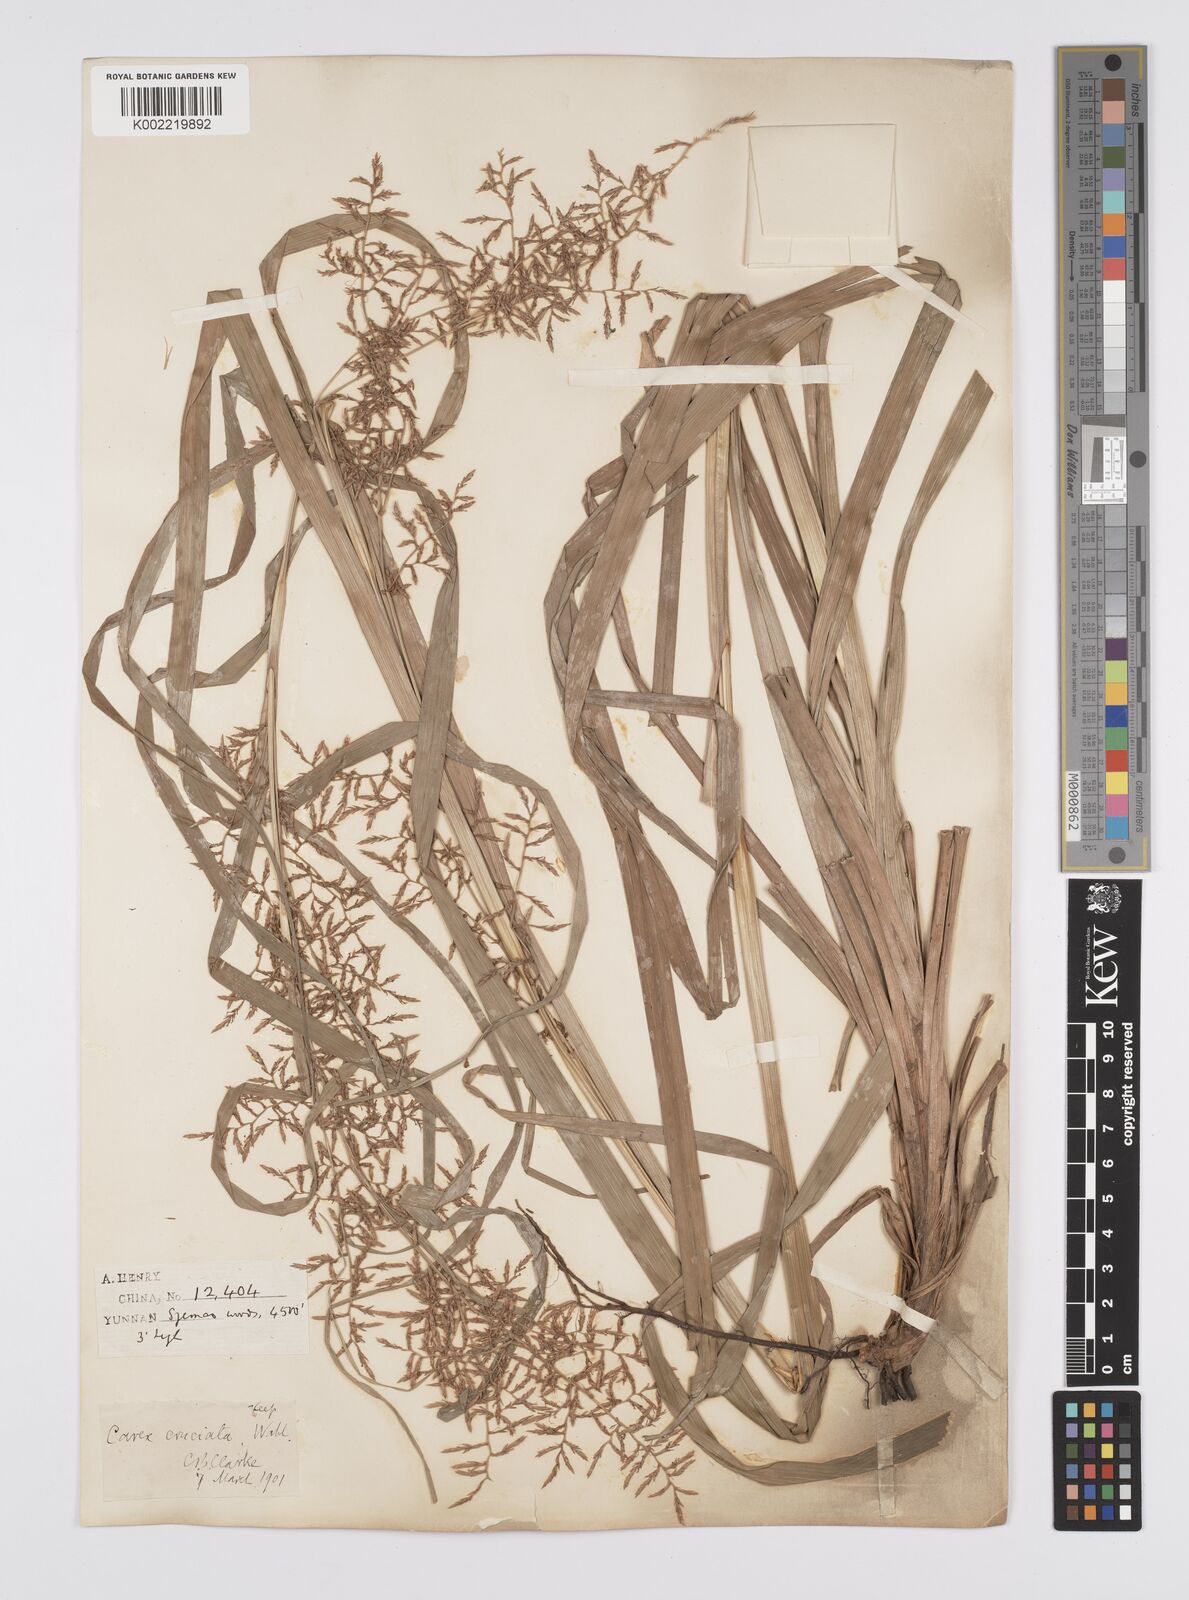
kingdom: Plantae
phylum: Tracheophyta
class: Liliopsida
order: Poales
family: Cyperaceae
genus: Carex
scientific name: Carex cruciata
